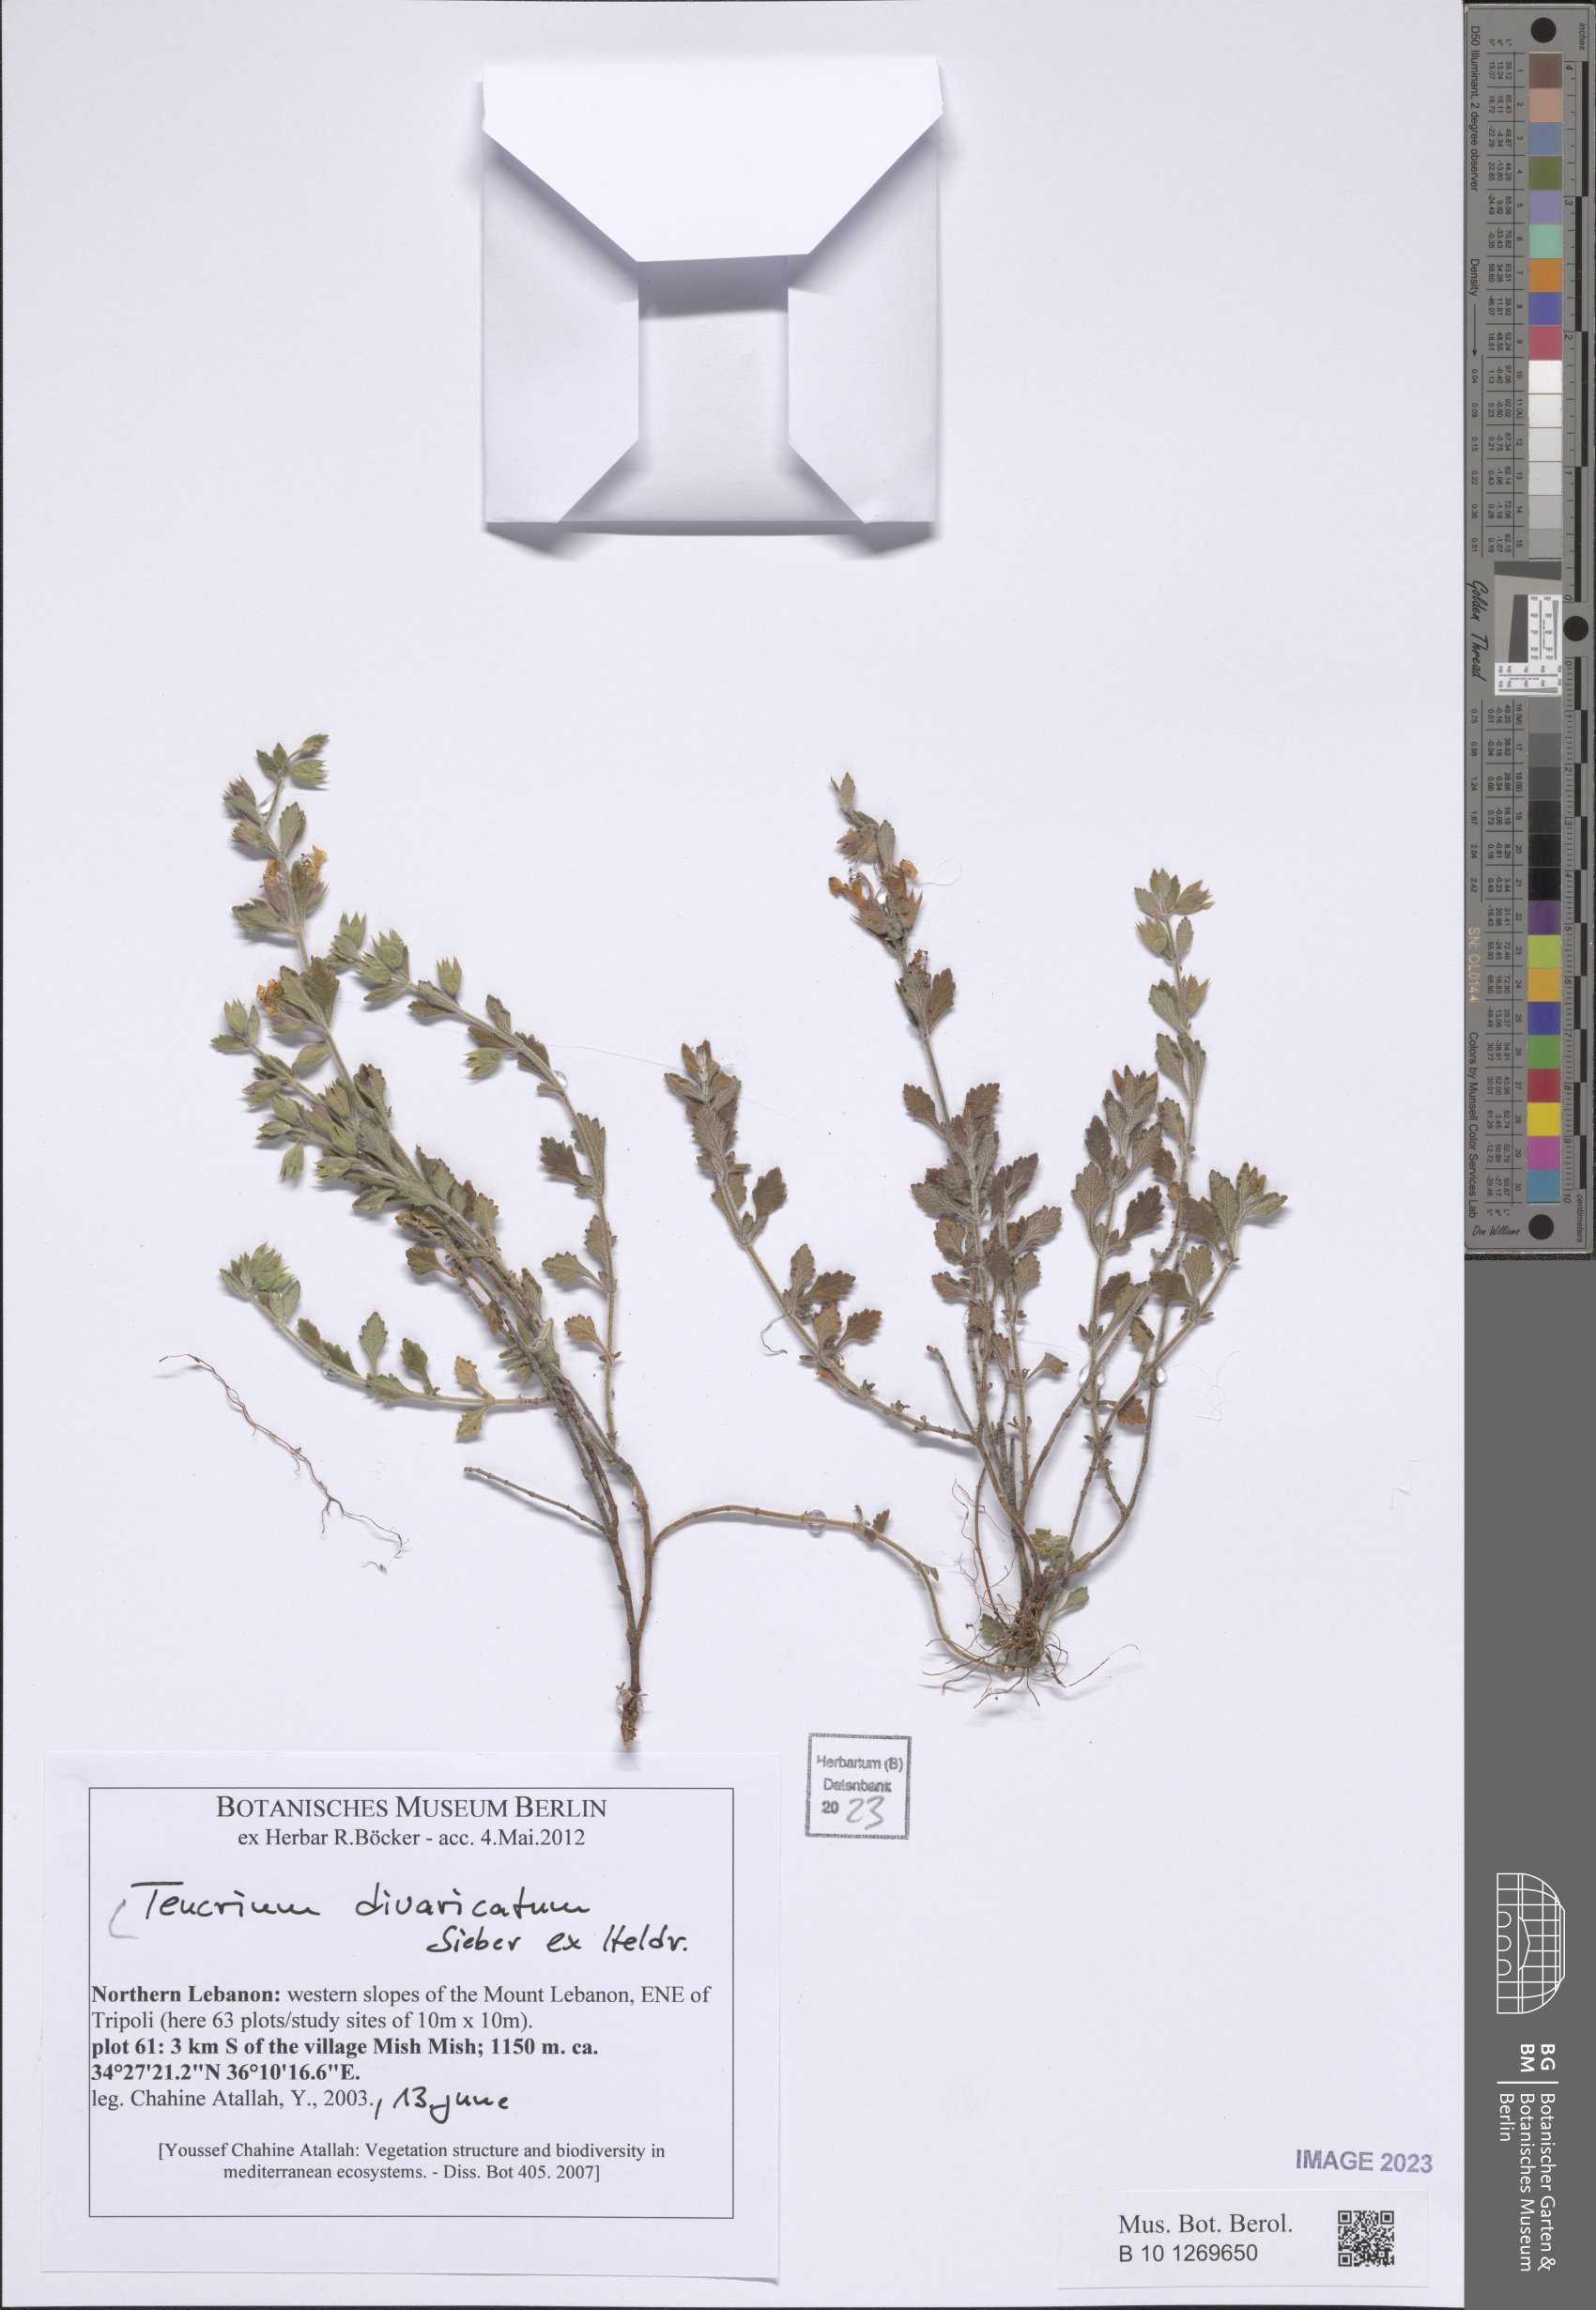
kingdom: Plantae
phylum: Tracheophyta
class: Magnoliopsida
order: Lamiales
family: Lamiaceae
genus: Teucrium
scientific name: Teucrium divaricatum
